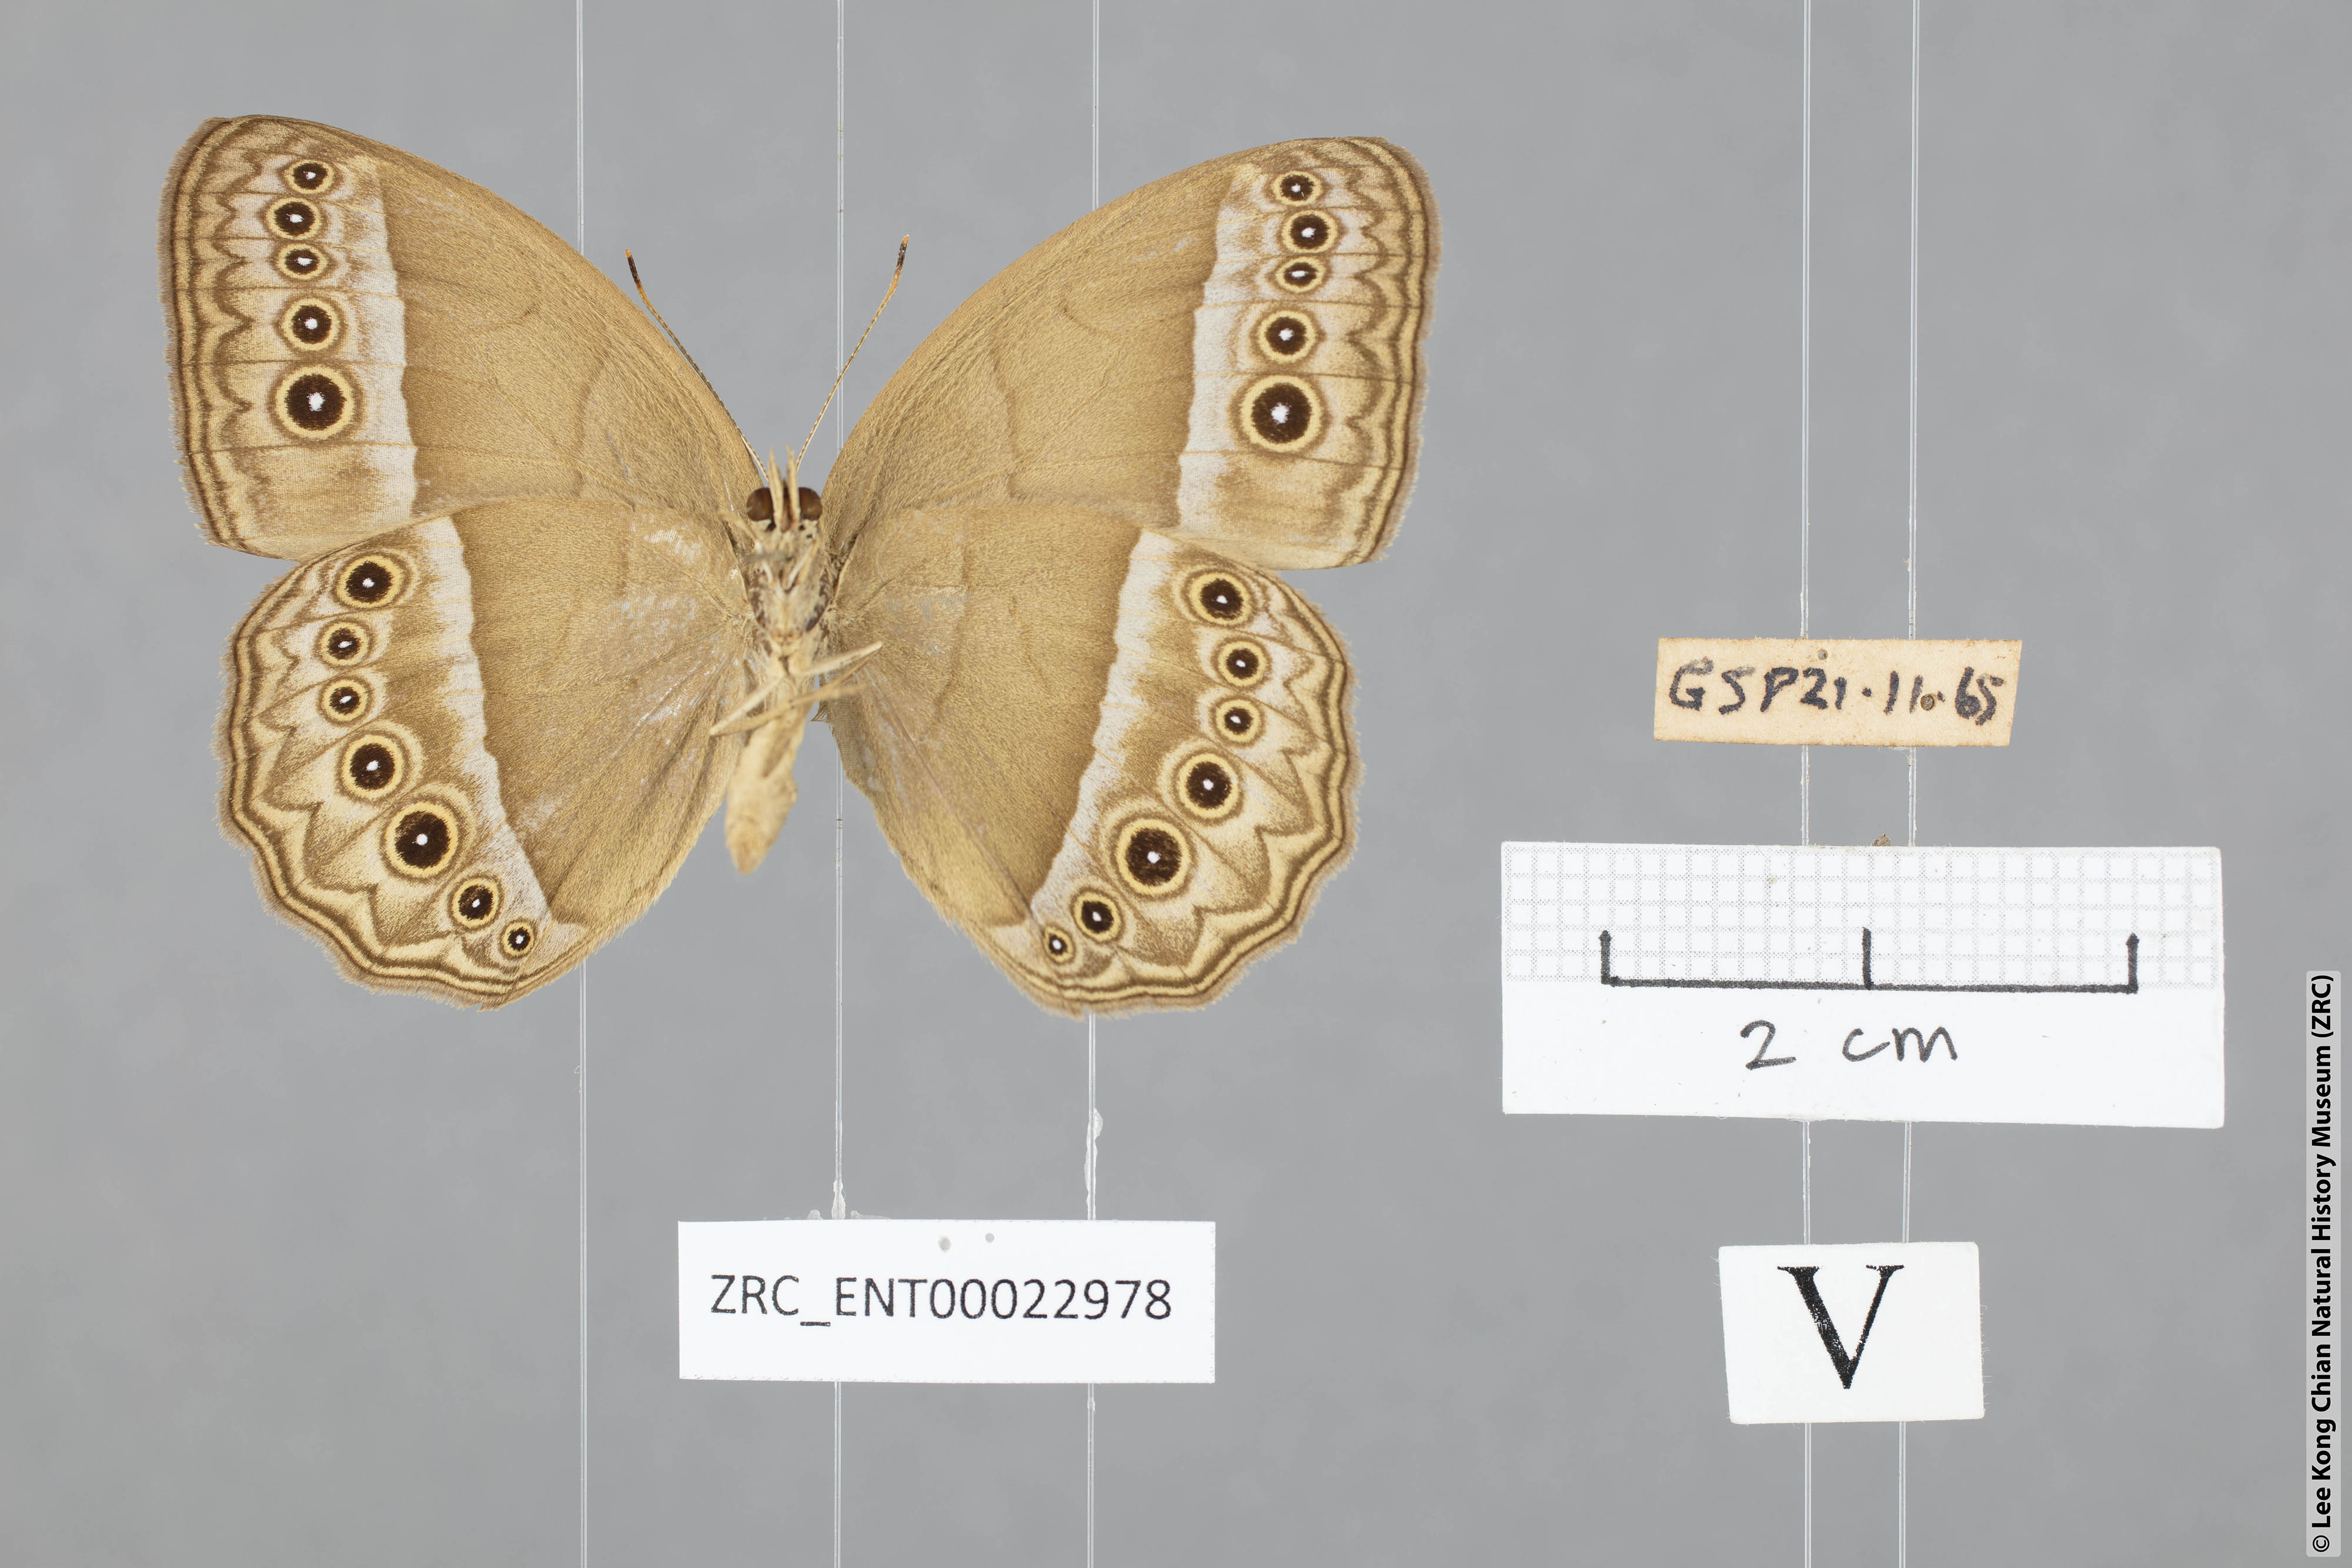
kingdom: Animalia
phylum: Arthropoda
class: Insecta
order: Lepidoptera
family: Nymphalidae
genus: Mycalesis
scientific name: Mycalesis orseis
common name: Purple bushbrown
